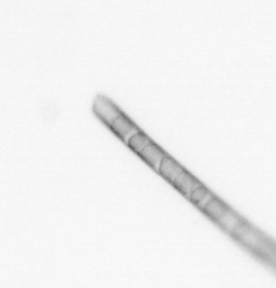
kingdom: Chromista
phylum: Ochrophyta
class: Bacillariophyceae
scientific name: Bacillariophyceae
